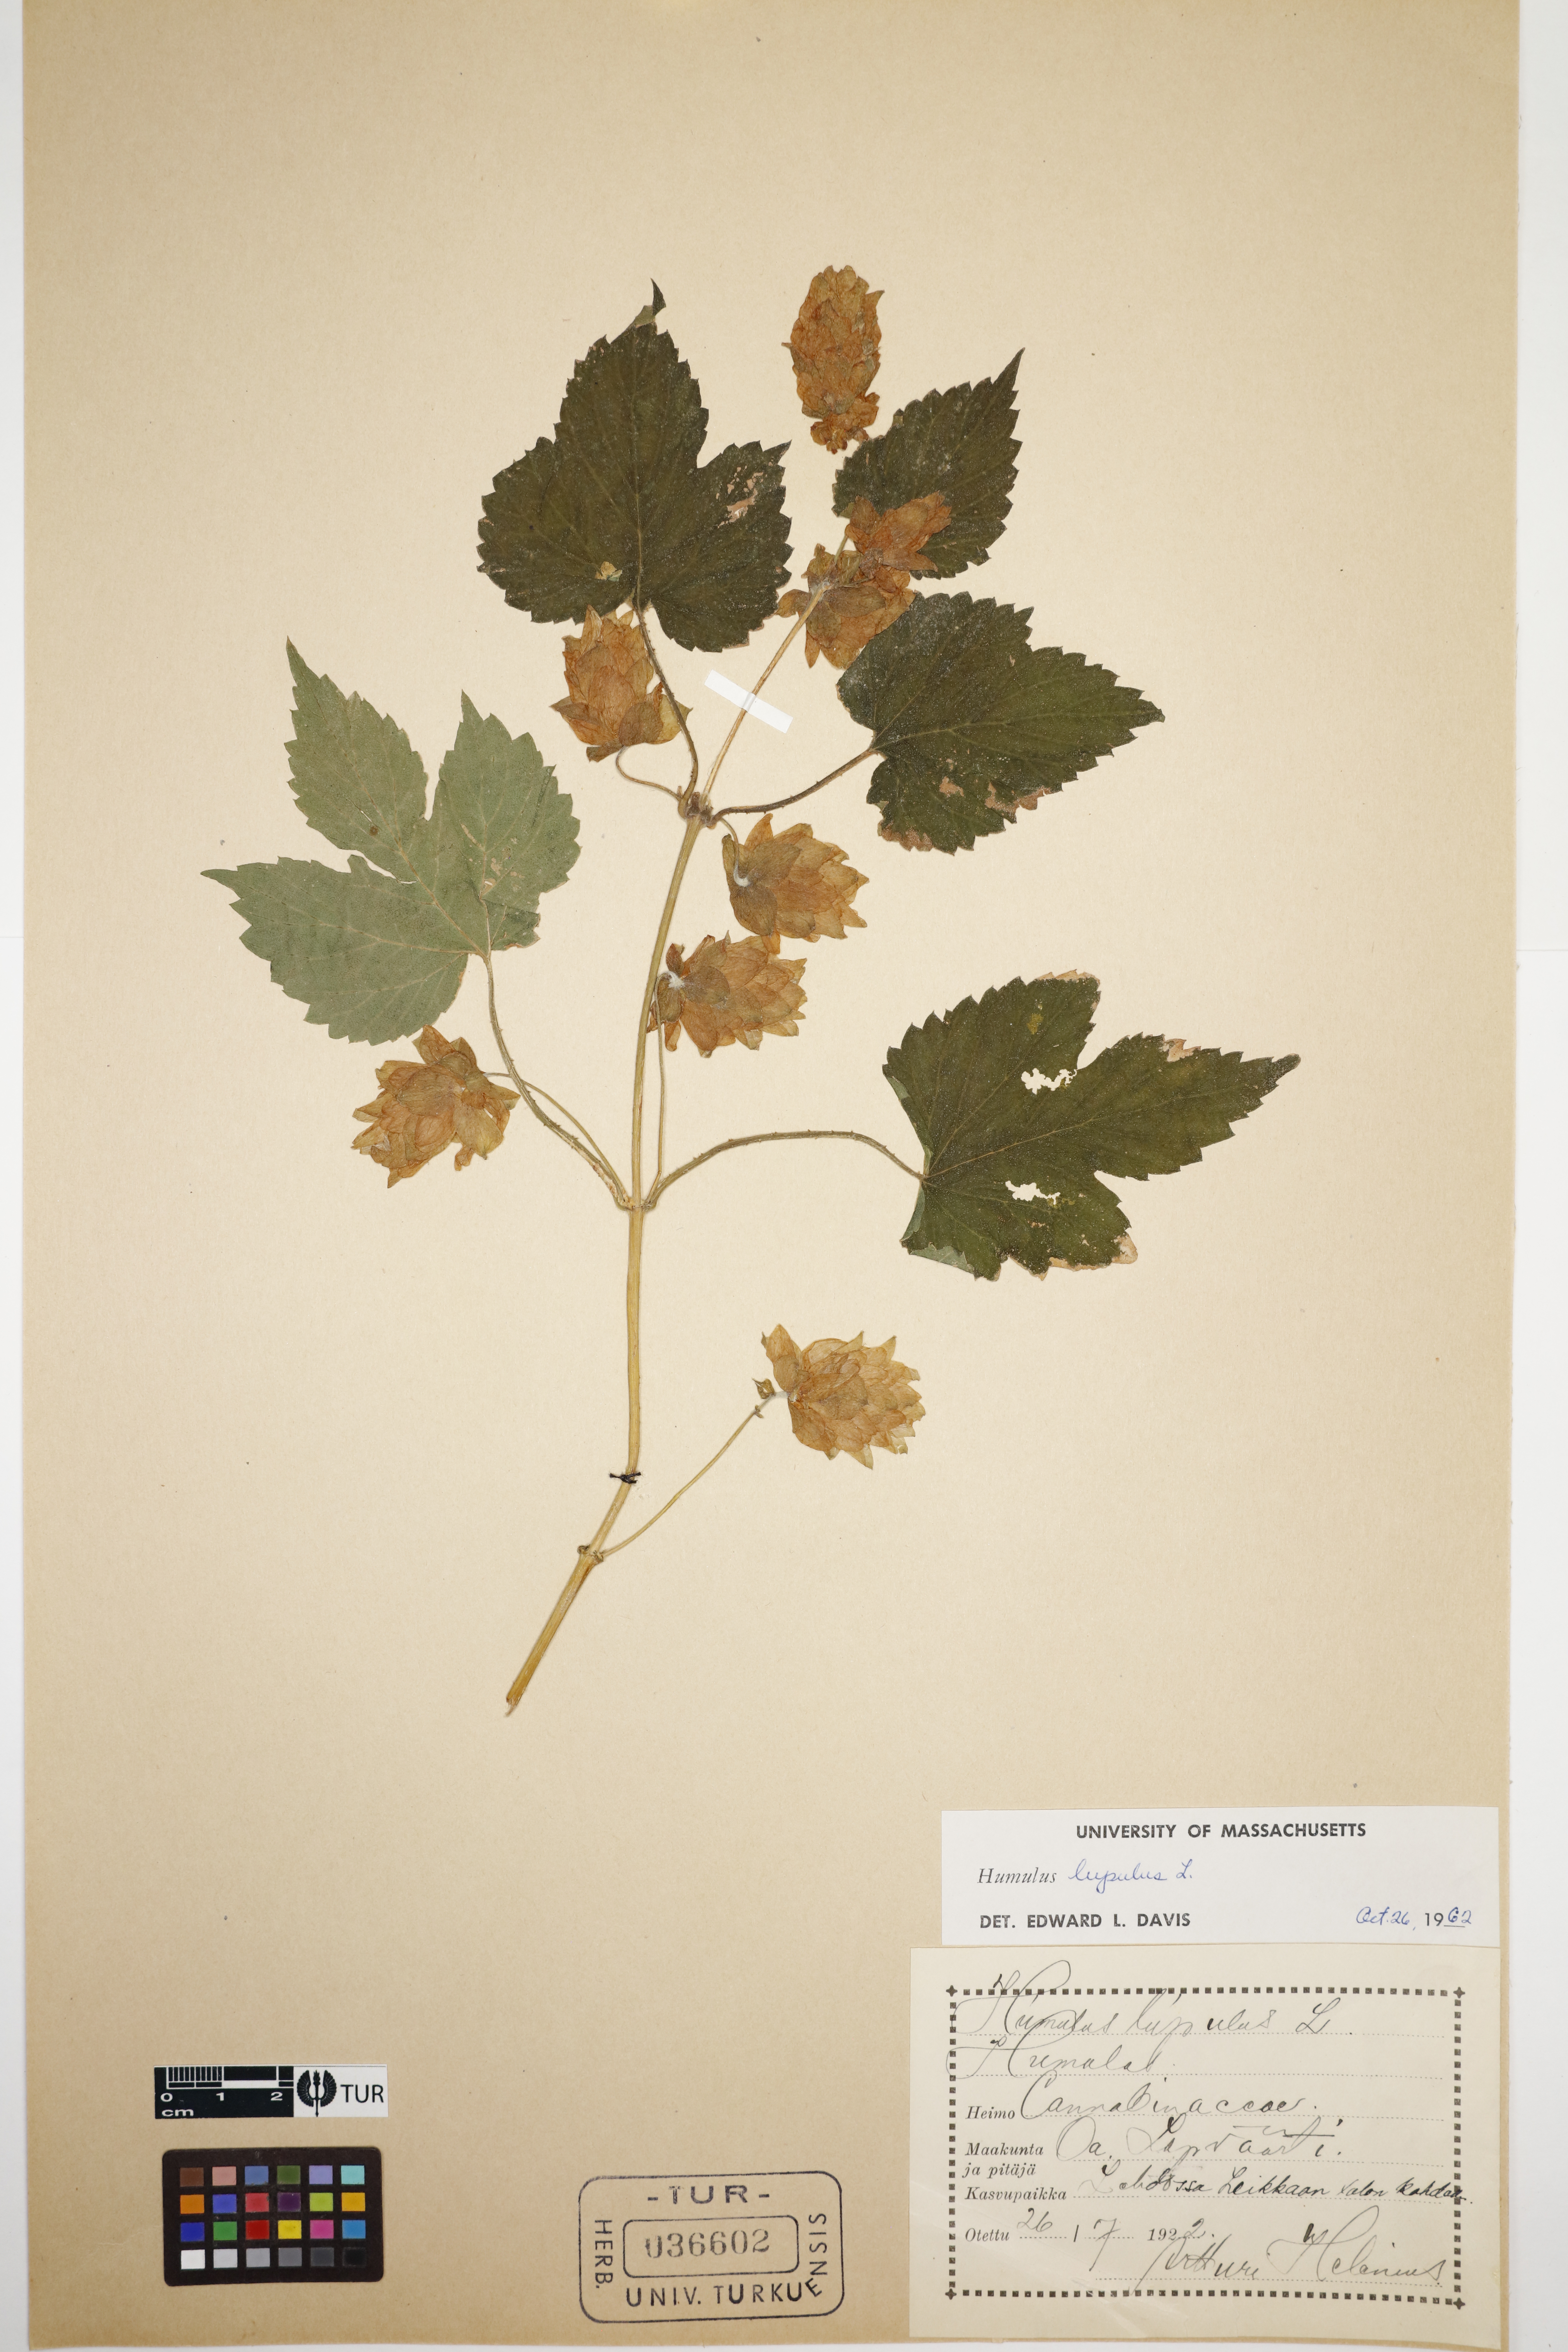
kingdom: Plantae
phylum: Tracheophyta
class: Magnoliopsida
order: Rosales
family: Cannabaceae
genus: Humulus
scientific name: Humulus lupulus
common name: Hop
